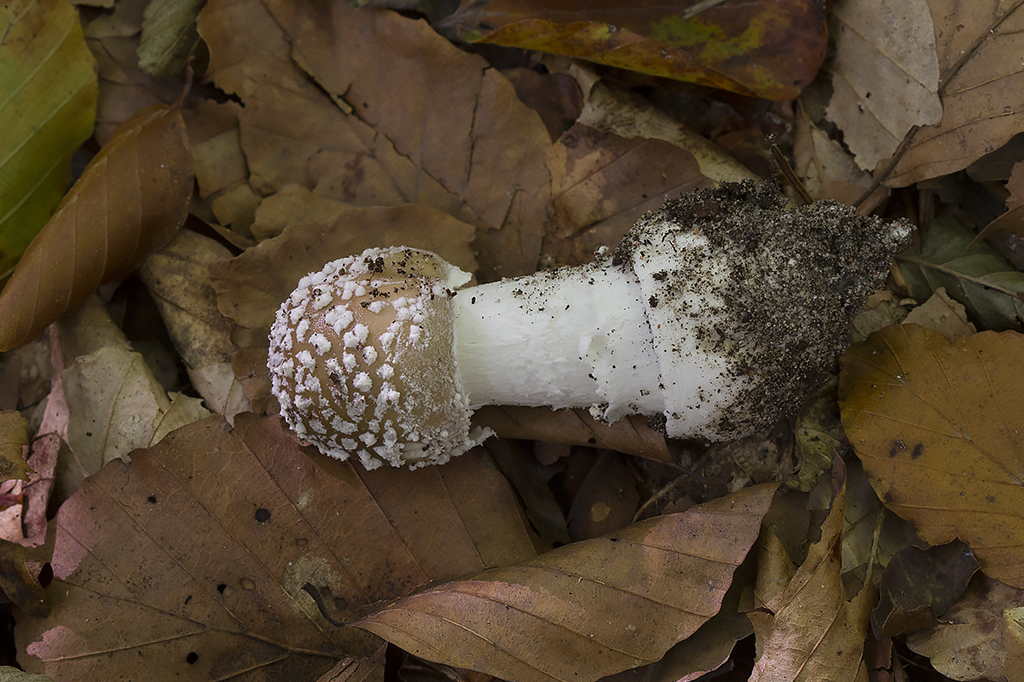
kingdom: Fungi
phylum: Basidiomycota
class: Agaricomycetes
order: Agaricales
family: Amanitaceae
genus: Amanita
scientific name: Amanita pantherina
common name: panter-fluesvamp
